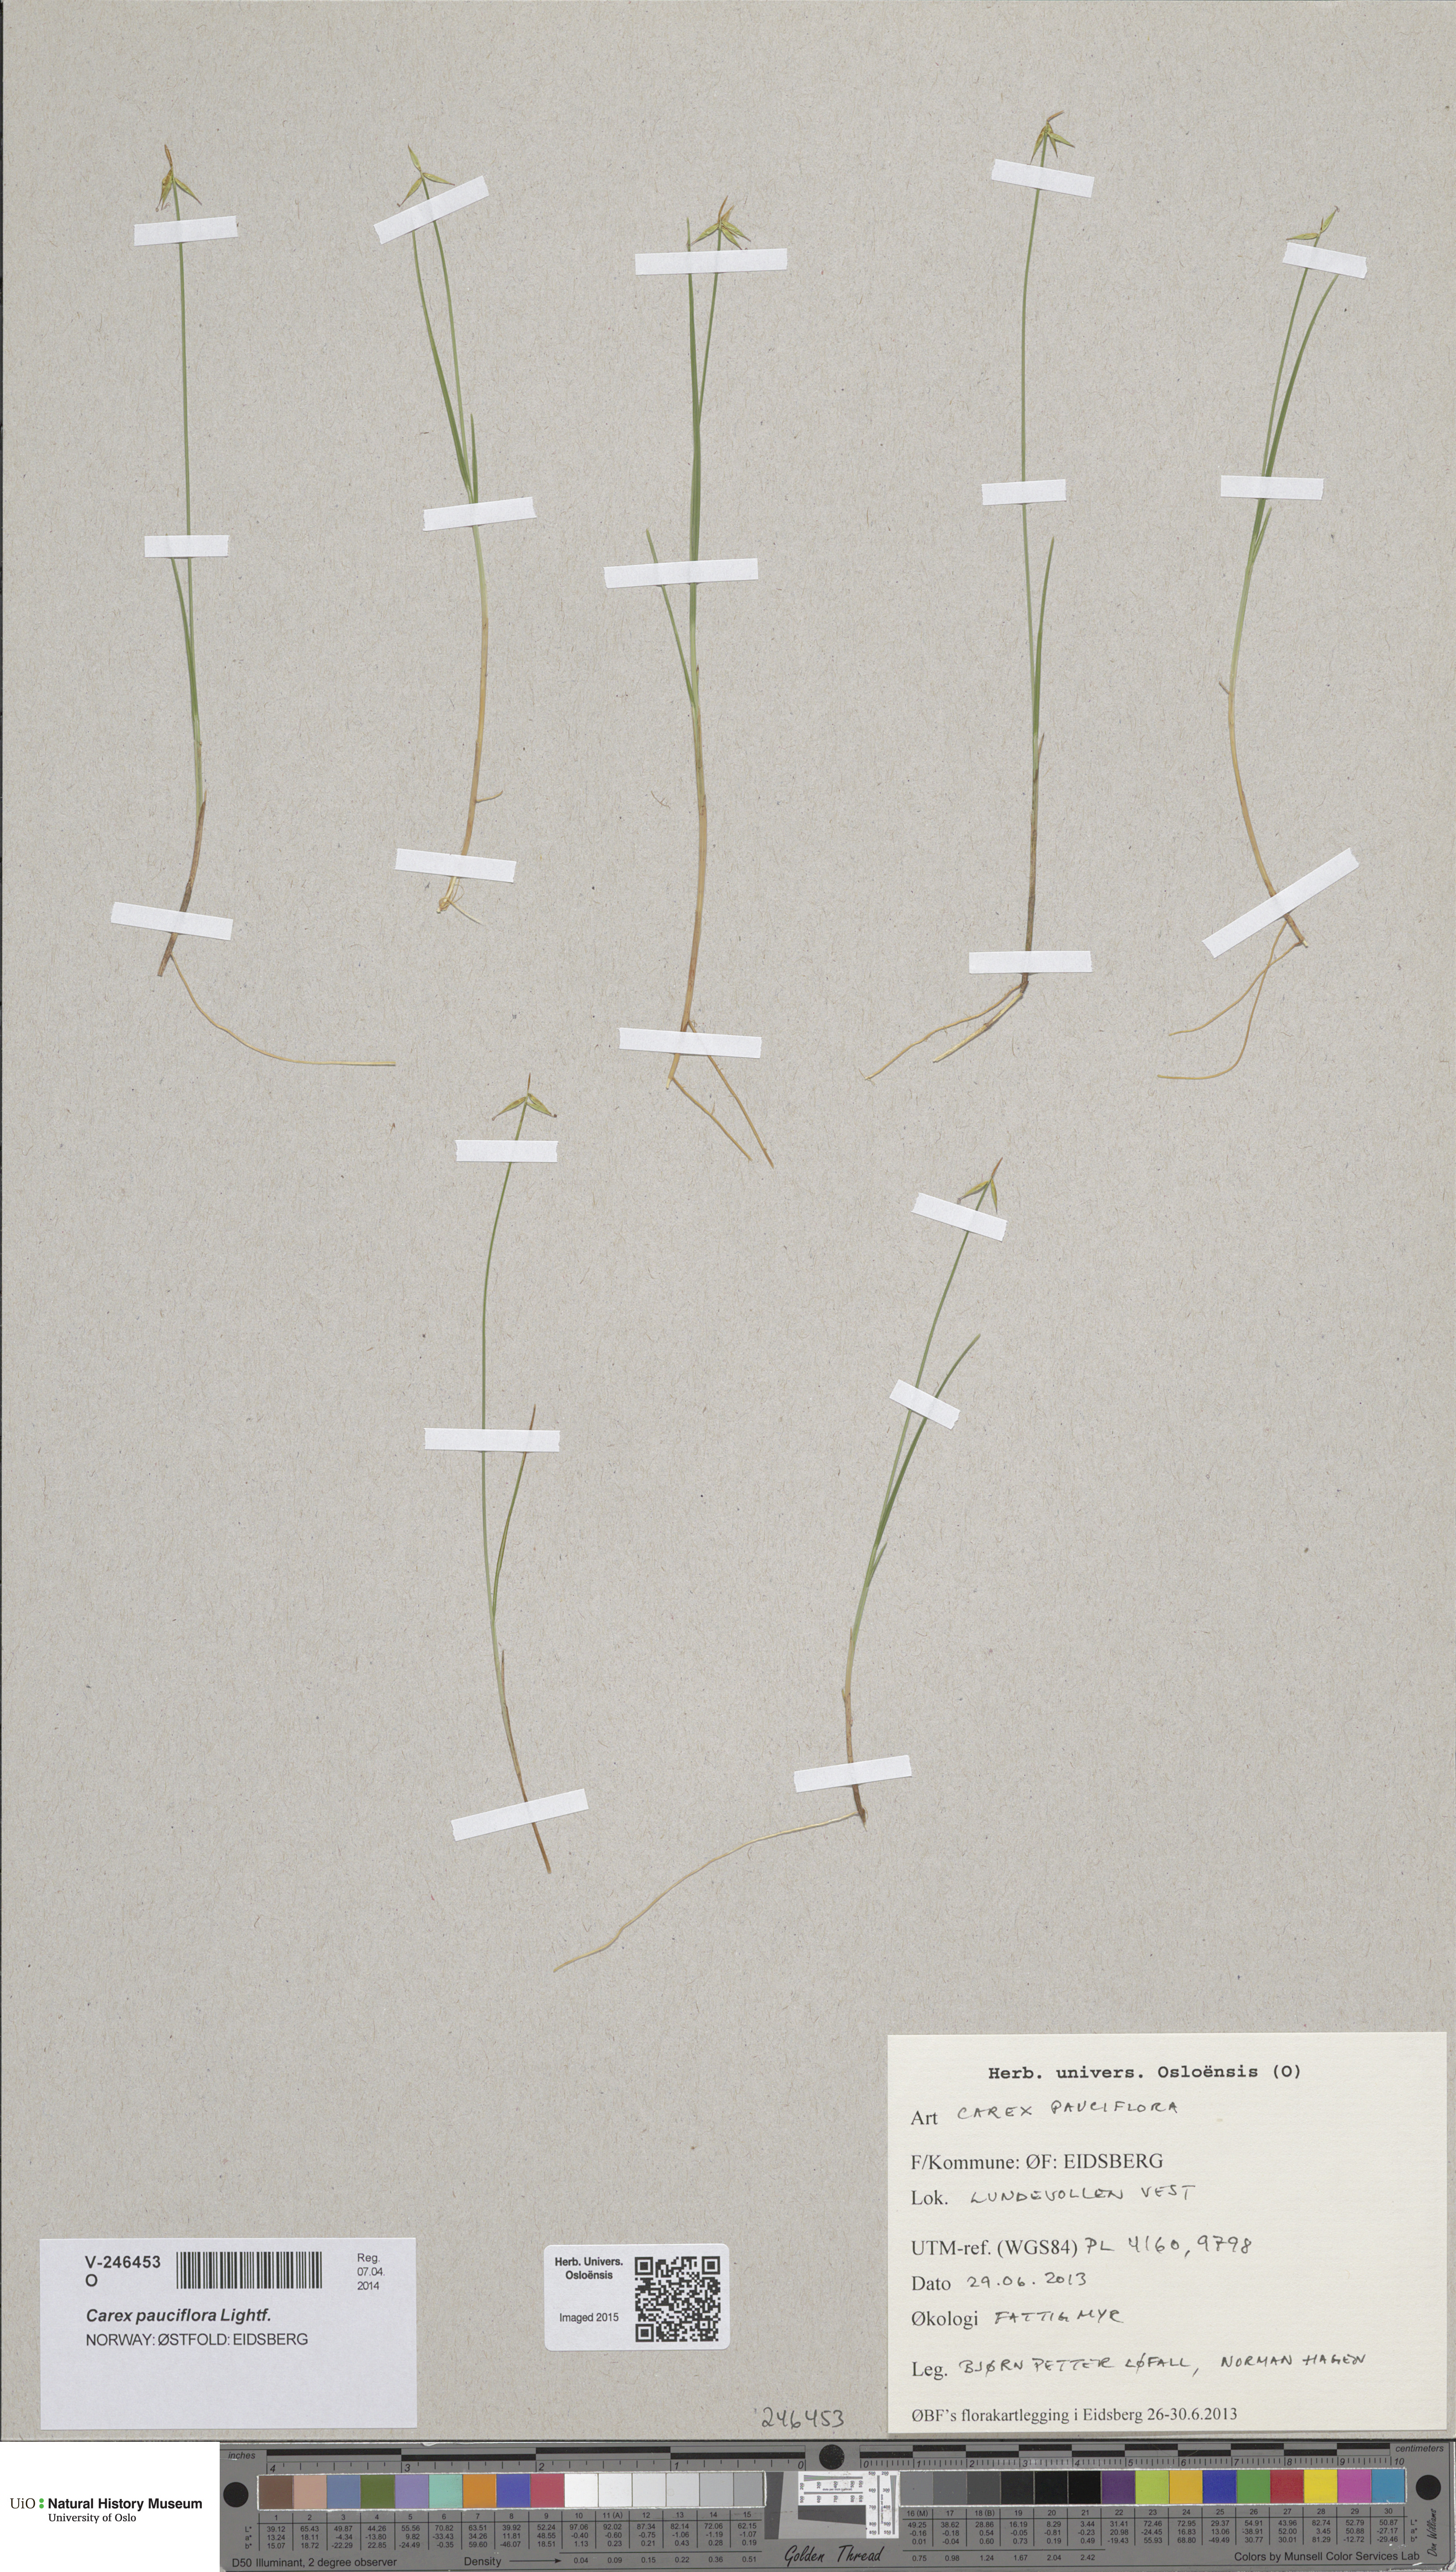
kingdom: Plantae
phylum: Tracheophyta
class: Liliopsida
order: Poales
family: Cyperaceae
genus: Carex
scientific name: Carex pauciflora
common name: Few-flowered sedge
